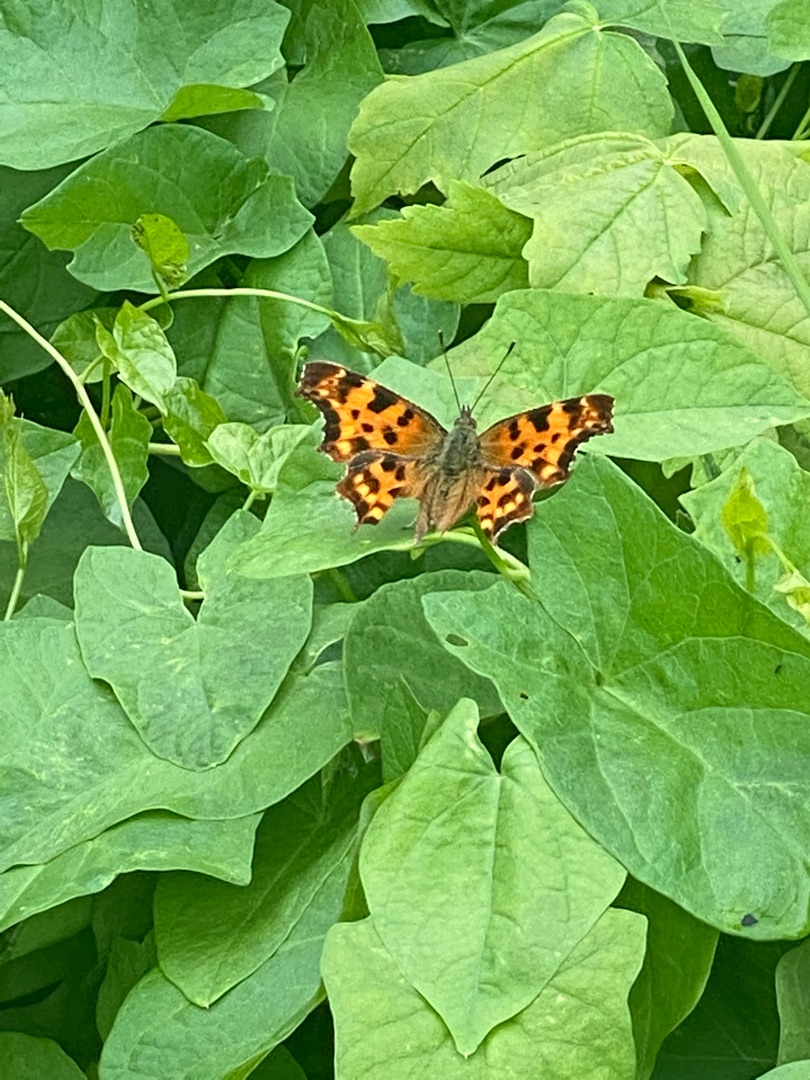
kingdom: Animalia
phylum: Arthropoda
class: Insecta
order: Lepidoptera
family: Nymphalidae
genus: Polygonia
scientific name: Polygonia c-album
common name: Det hvide C
